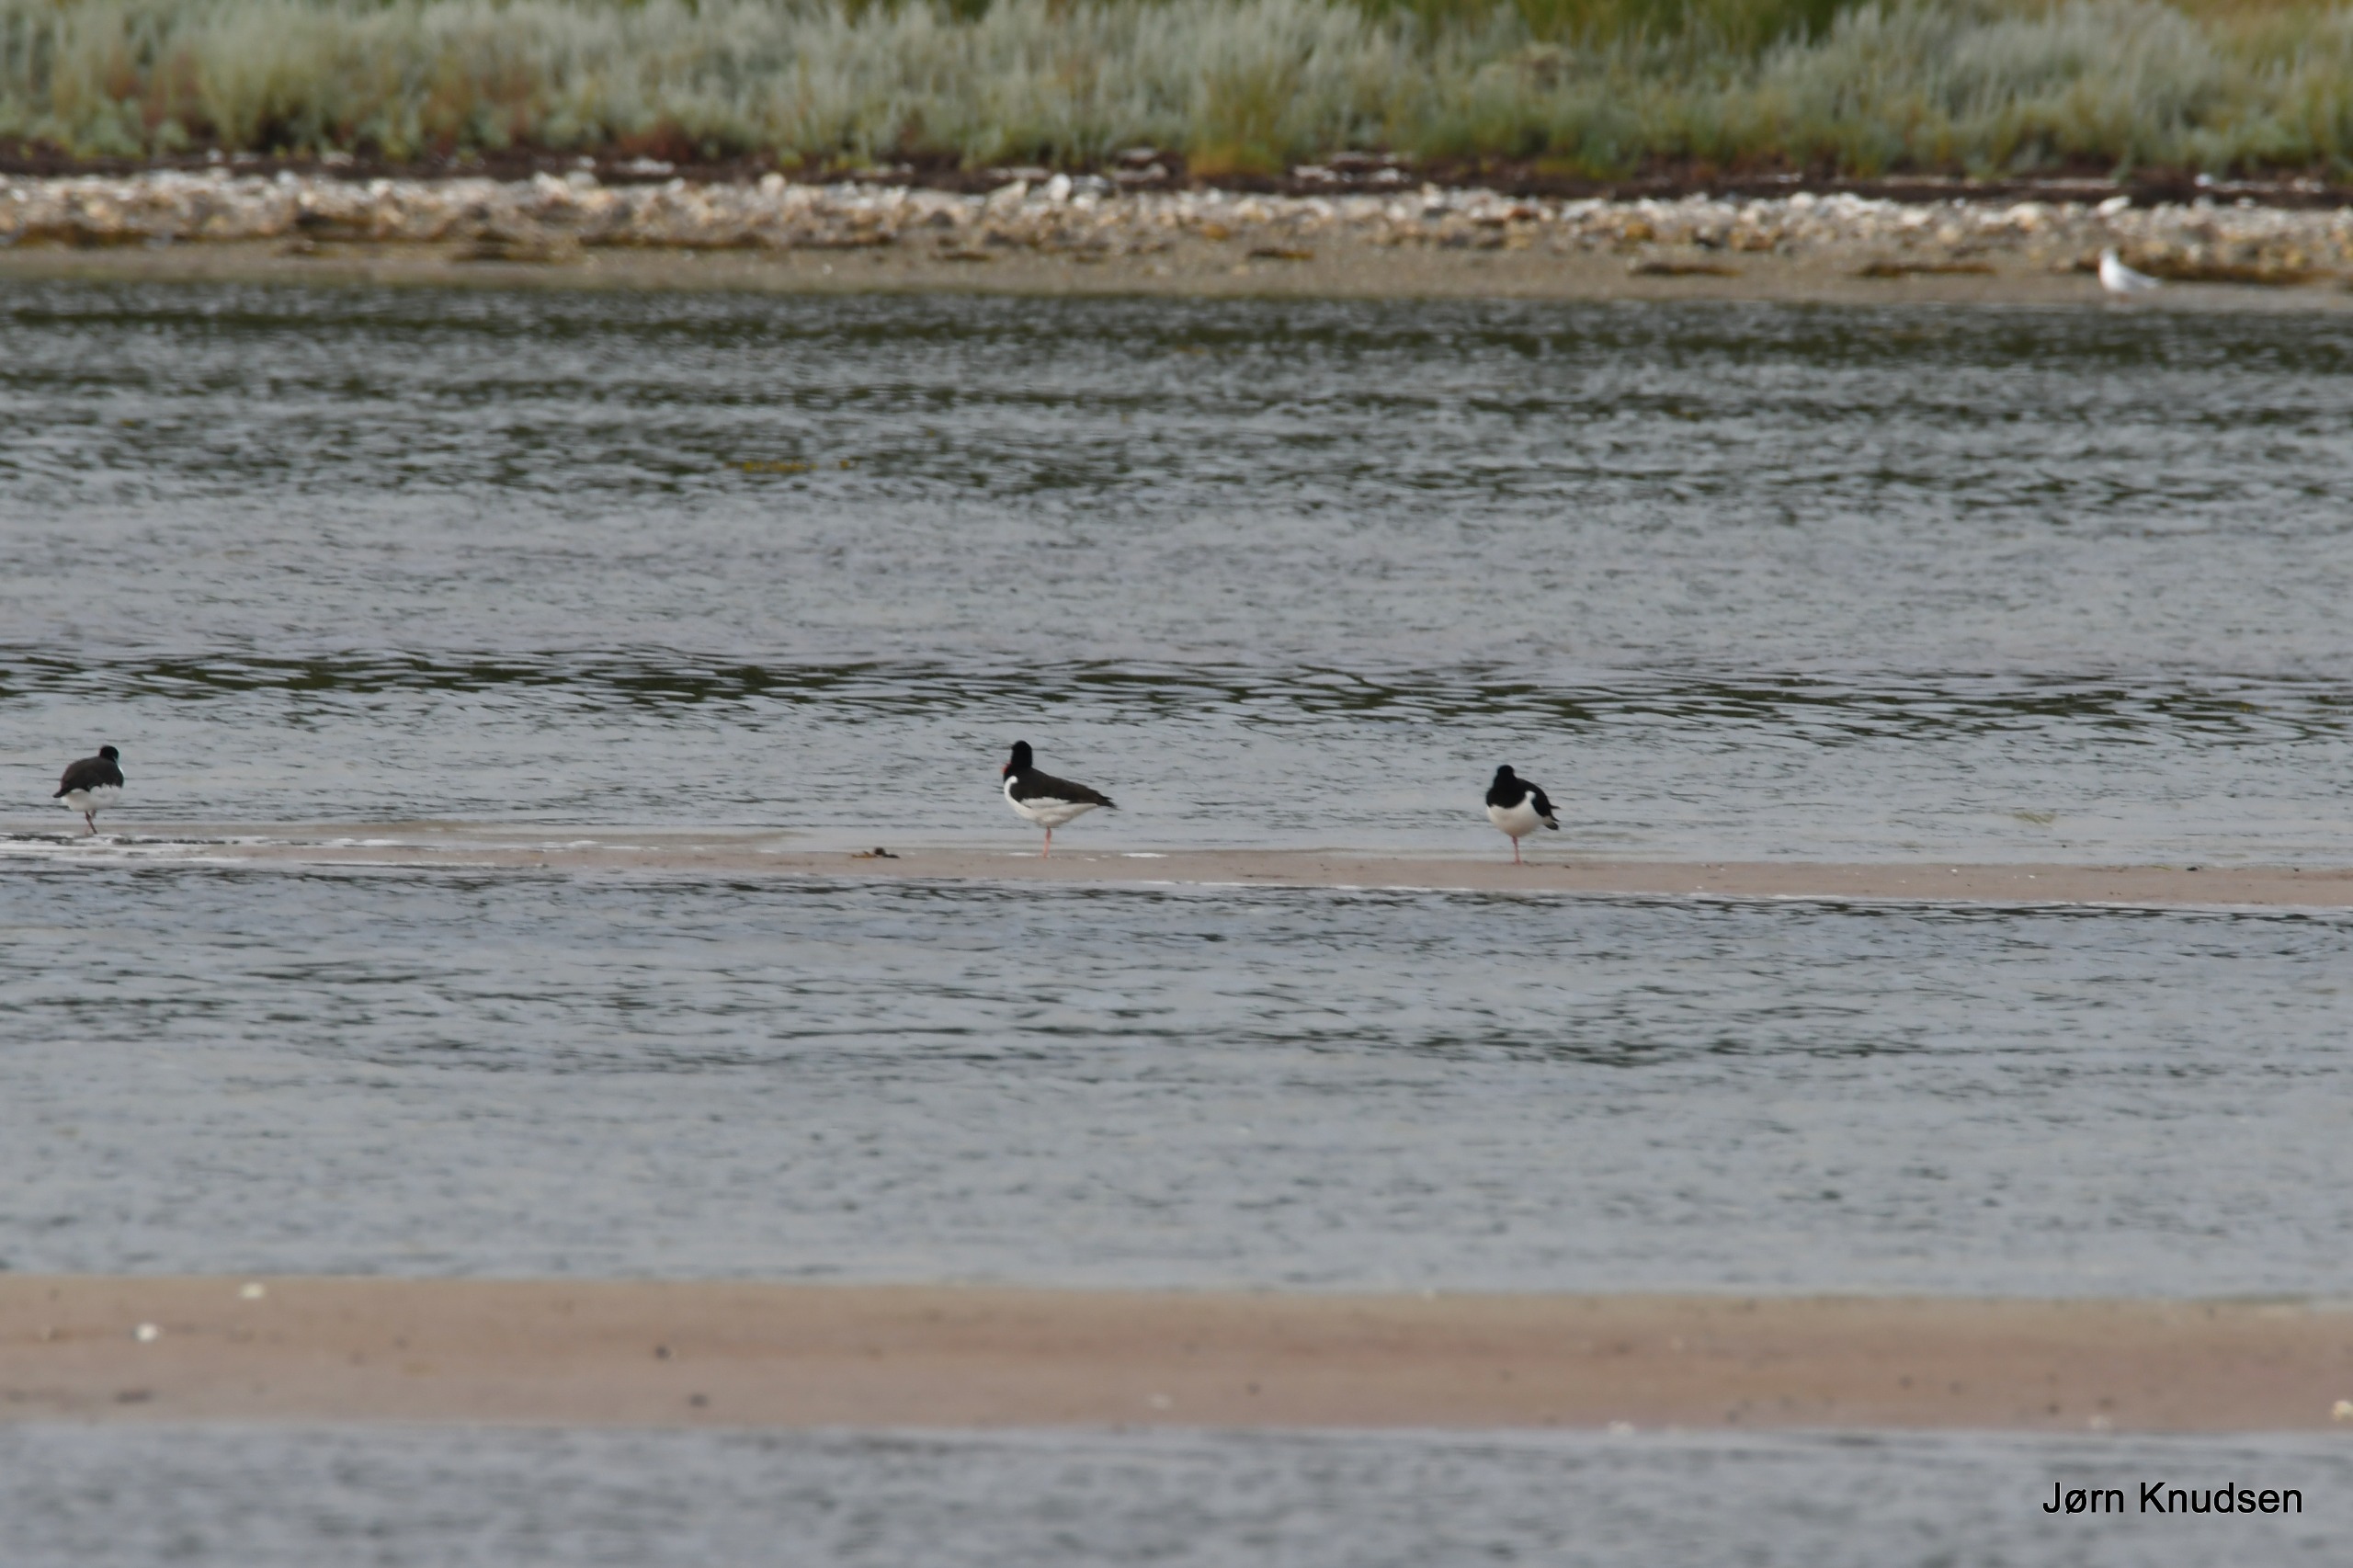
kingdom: Animalia
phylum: Chordata
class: Aves
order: Charadriiformes
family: Haematopodidae
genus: Haematopus
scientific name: Haematopus ostralegus
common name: Strandskade
